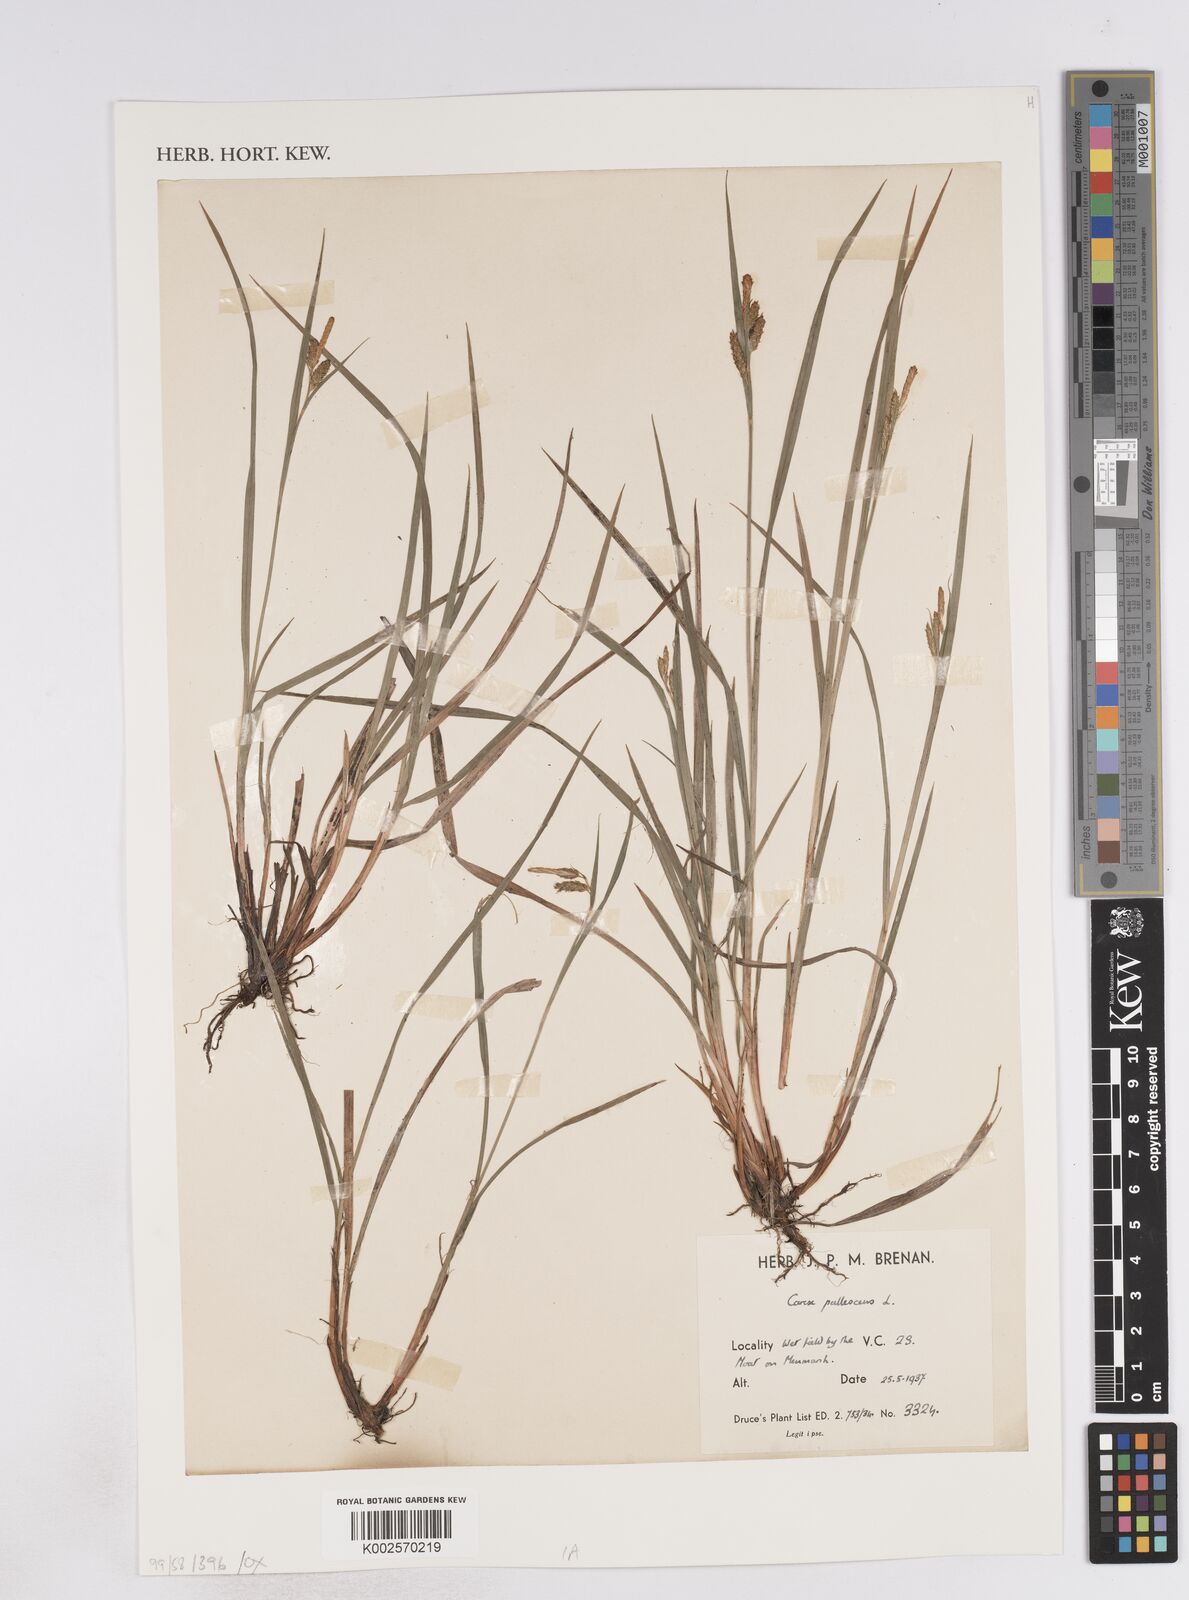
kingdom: Plantae
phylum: Tracheophyta
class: Liliopsida
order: Poales
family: Cyperaceae
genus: Carex
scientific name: Carex pallescens
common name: Pale sedge
